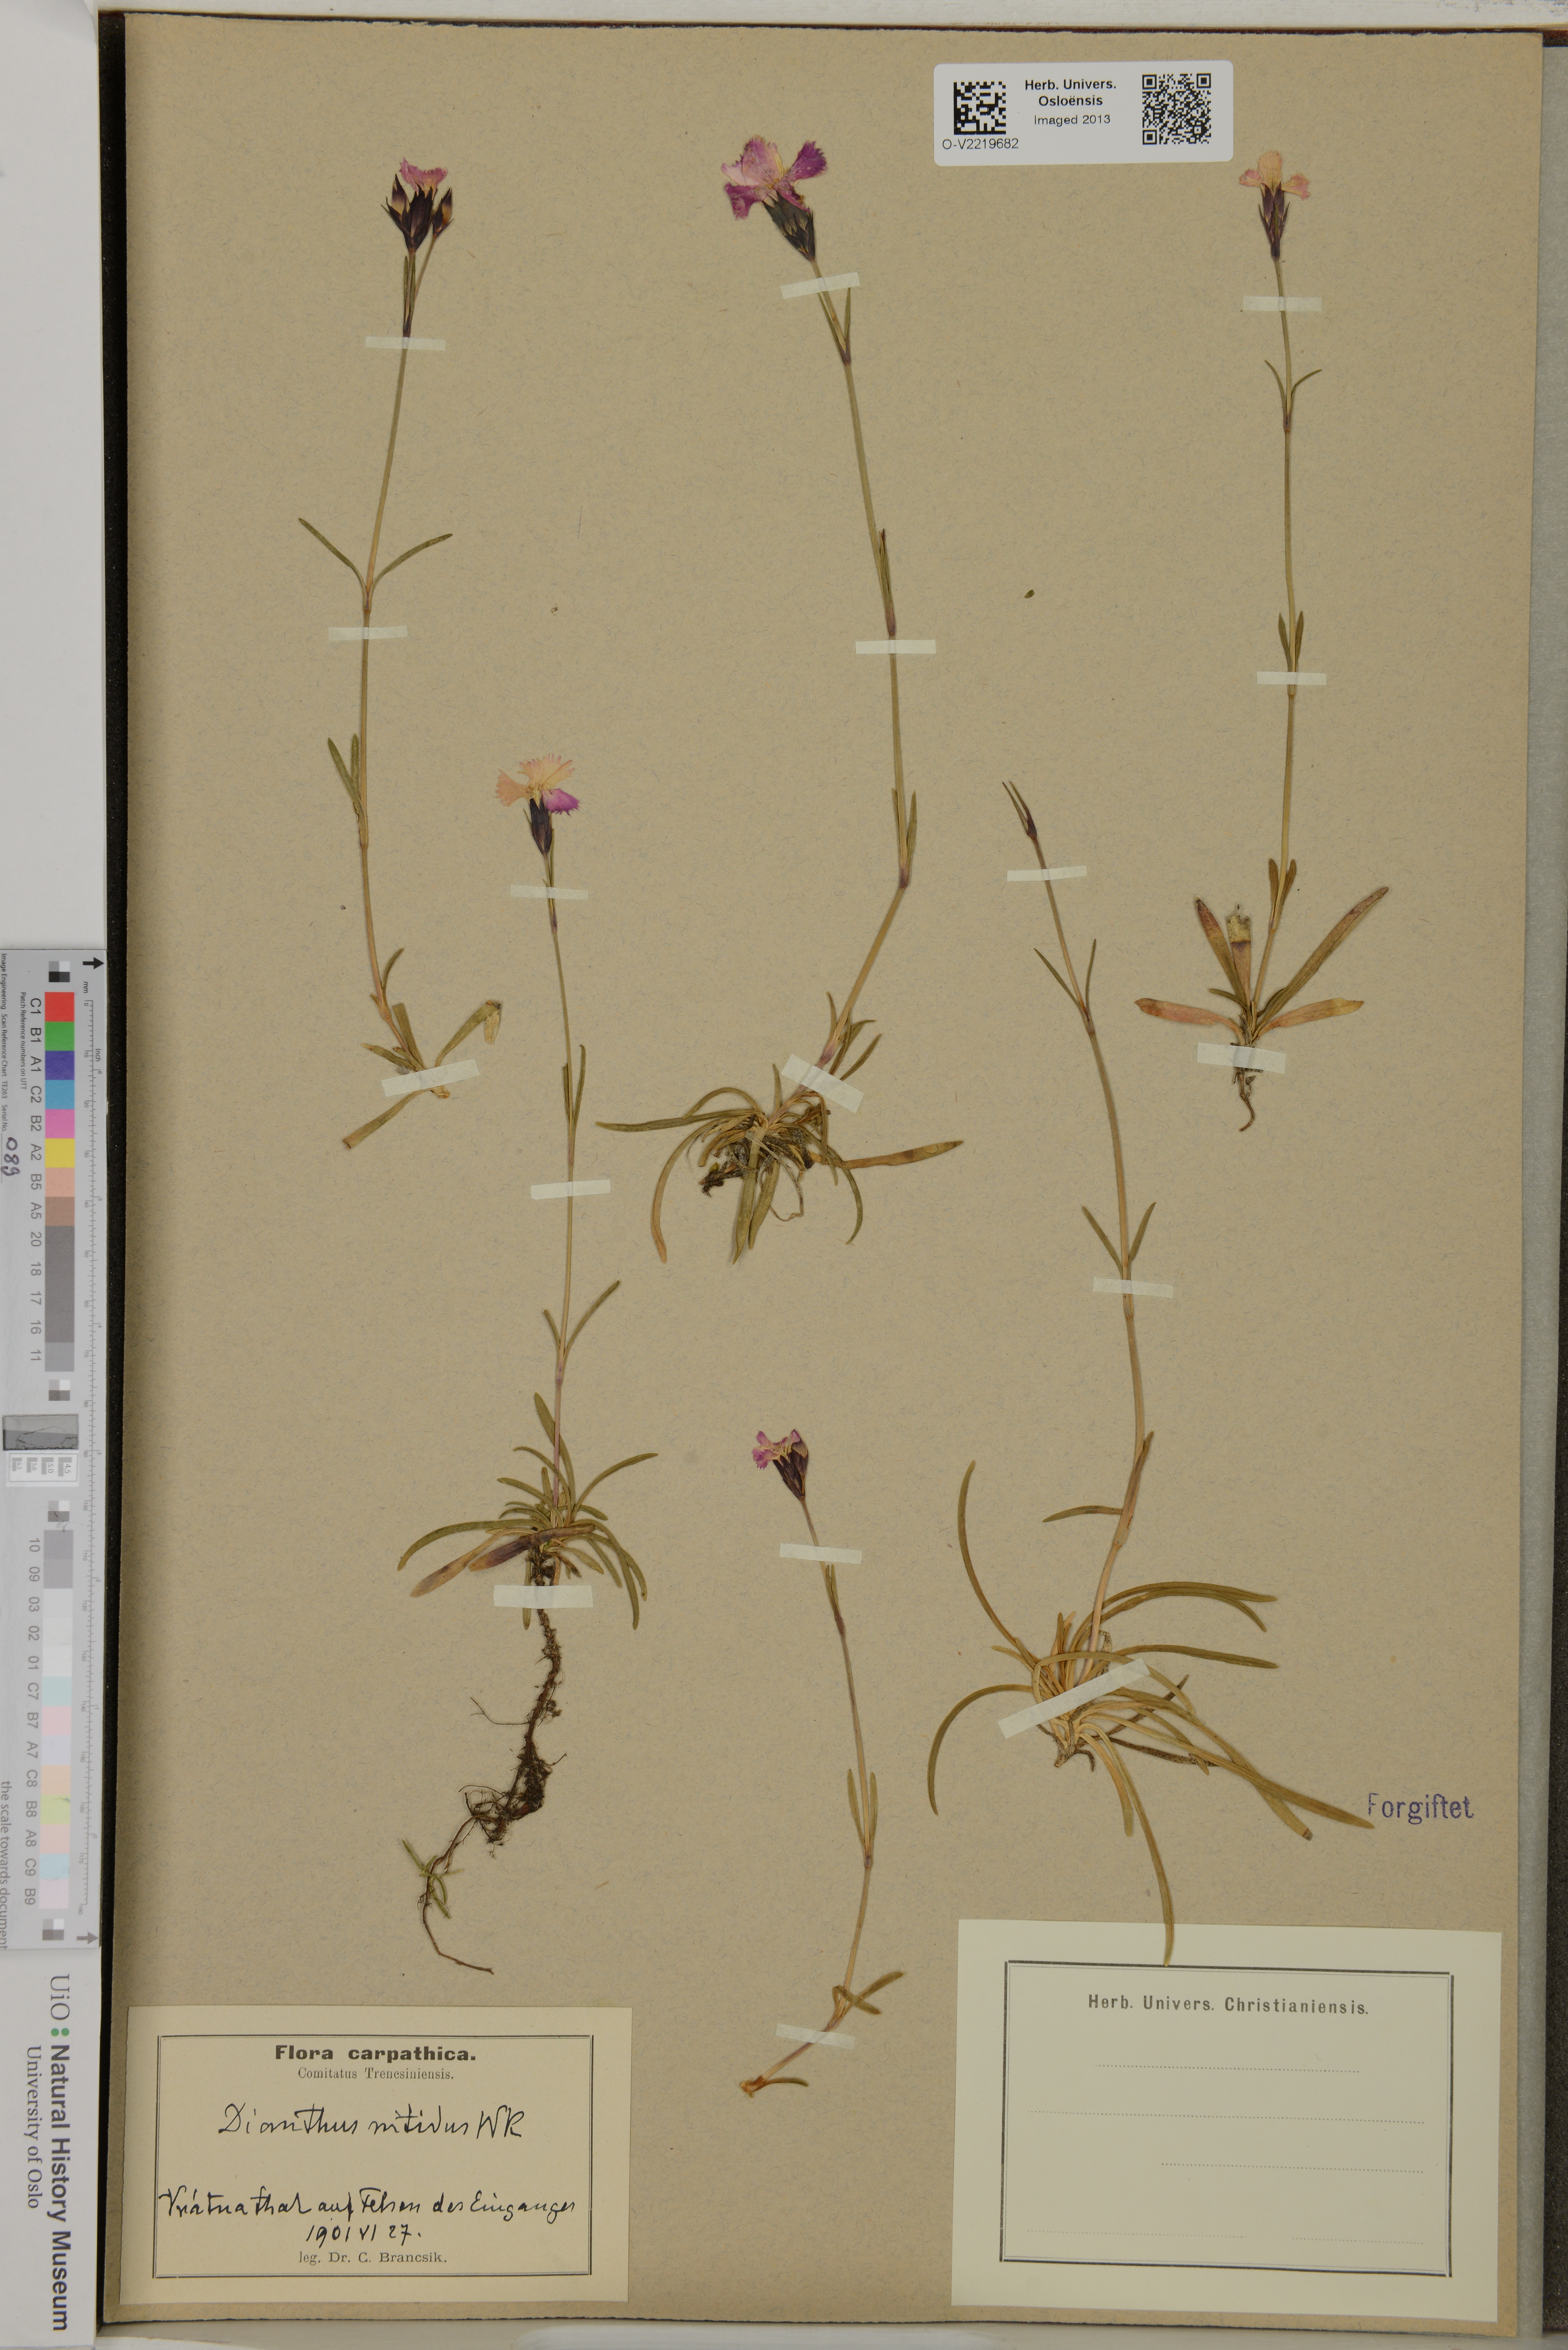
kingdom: Plantae
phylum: Tracheophyta
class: Magnoliopsida
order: Caryophyllales
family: Caryophyllaceae
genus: Dianthus
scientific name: Dianthus nitidus
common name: Carpathian glossy pink
